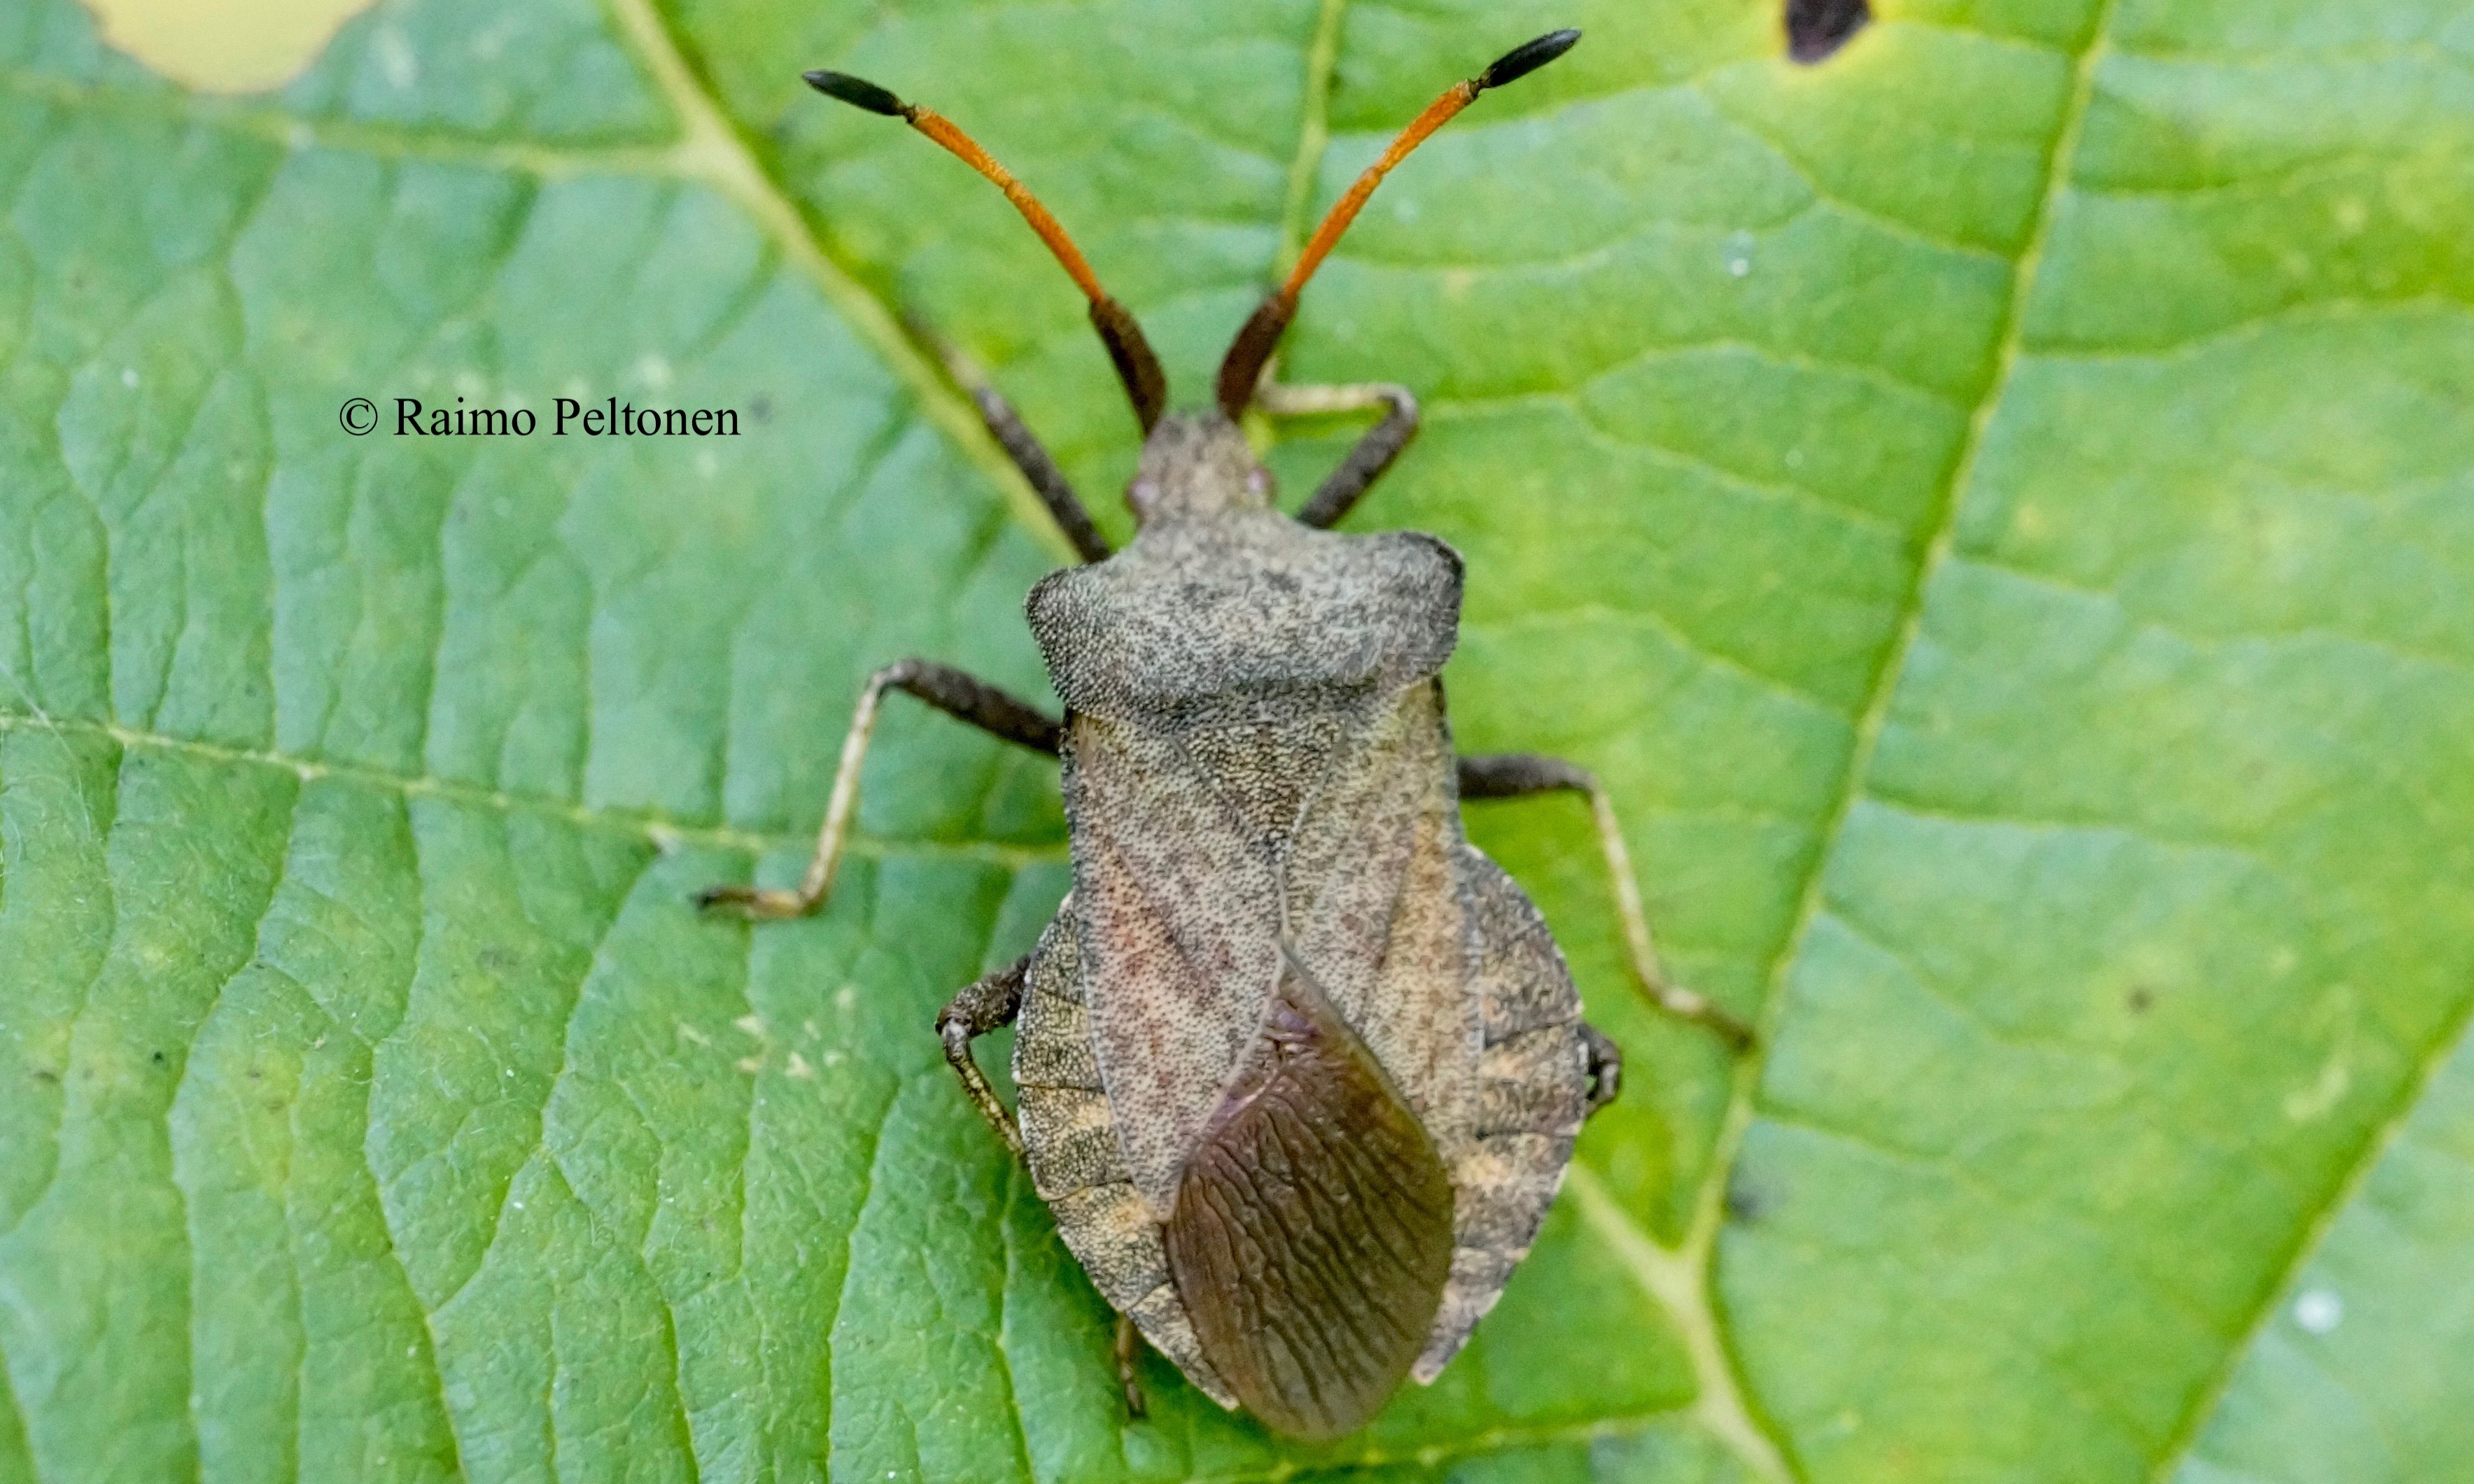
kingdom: Animalia
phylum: Arthropoda
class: Insecta
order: Hemiptera
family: Coreidae
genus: Coreus
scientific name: Coreus marginatus
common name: Dock bug
